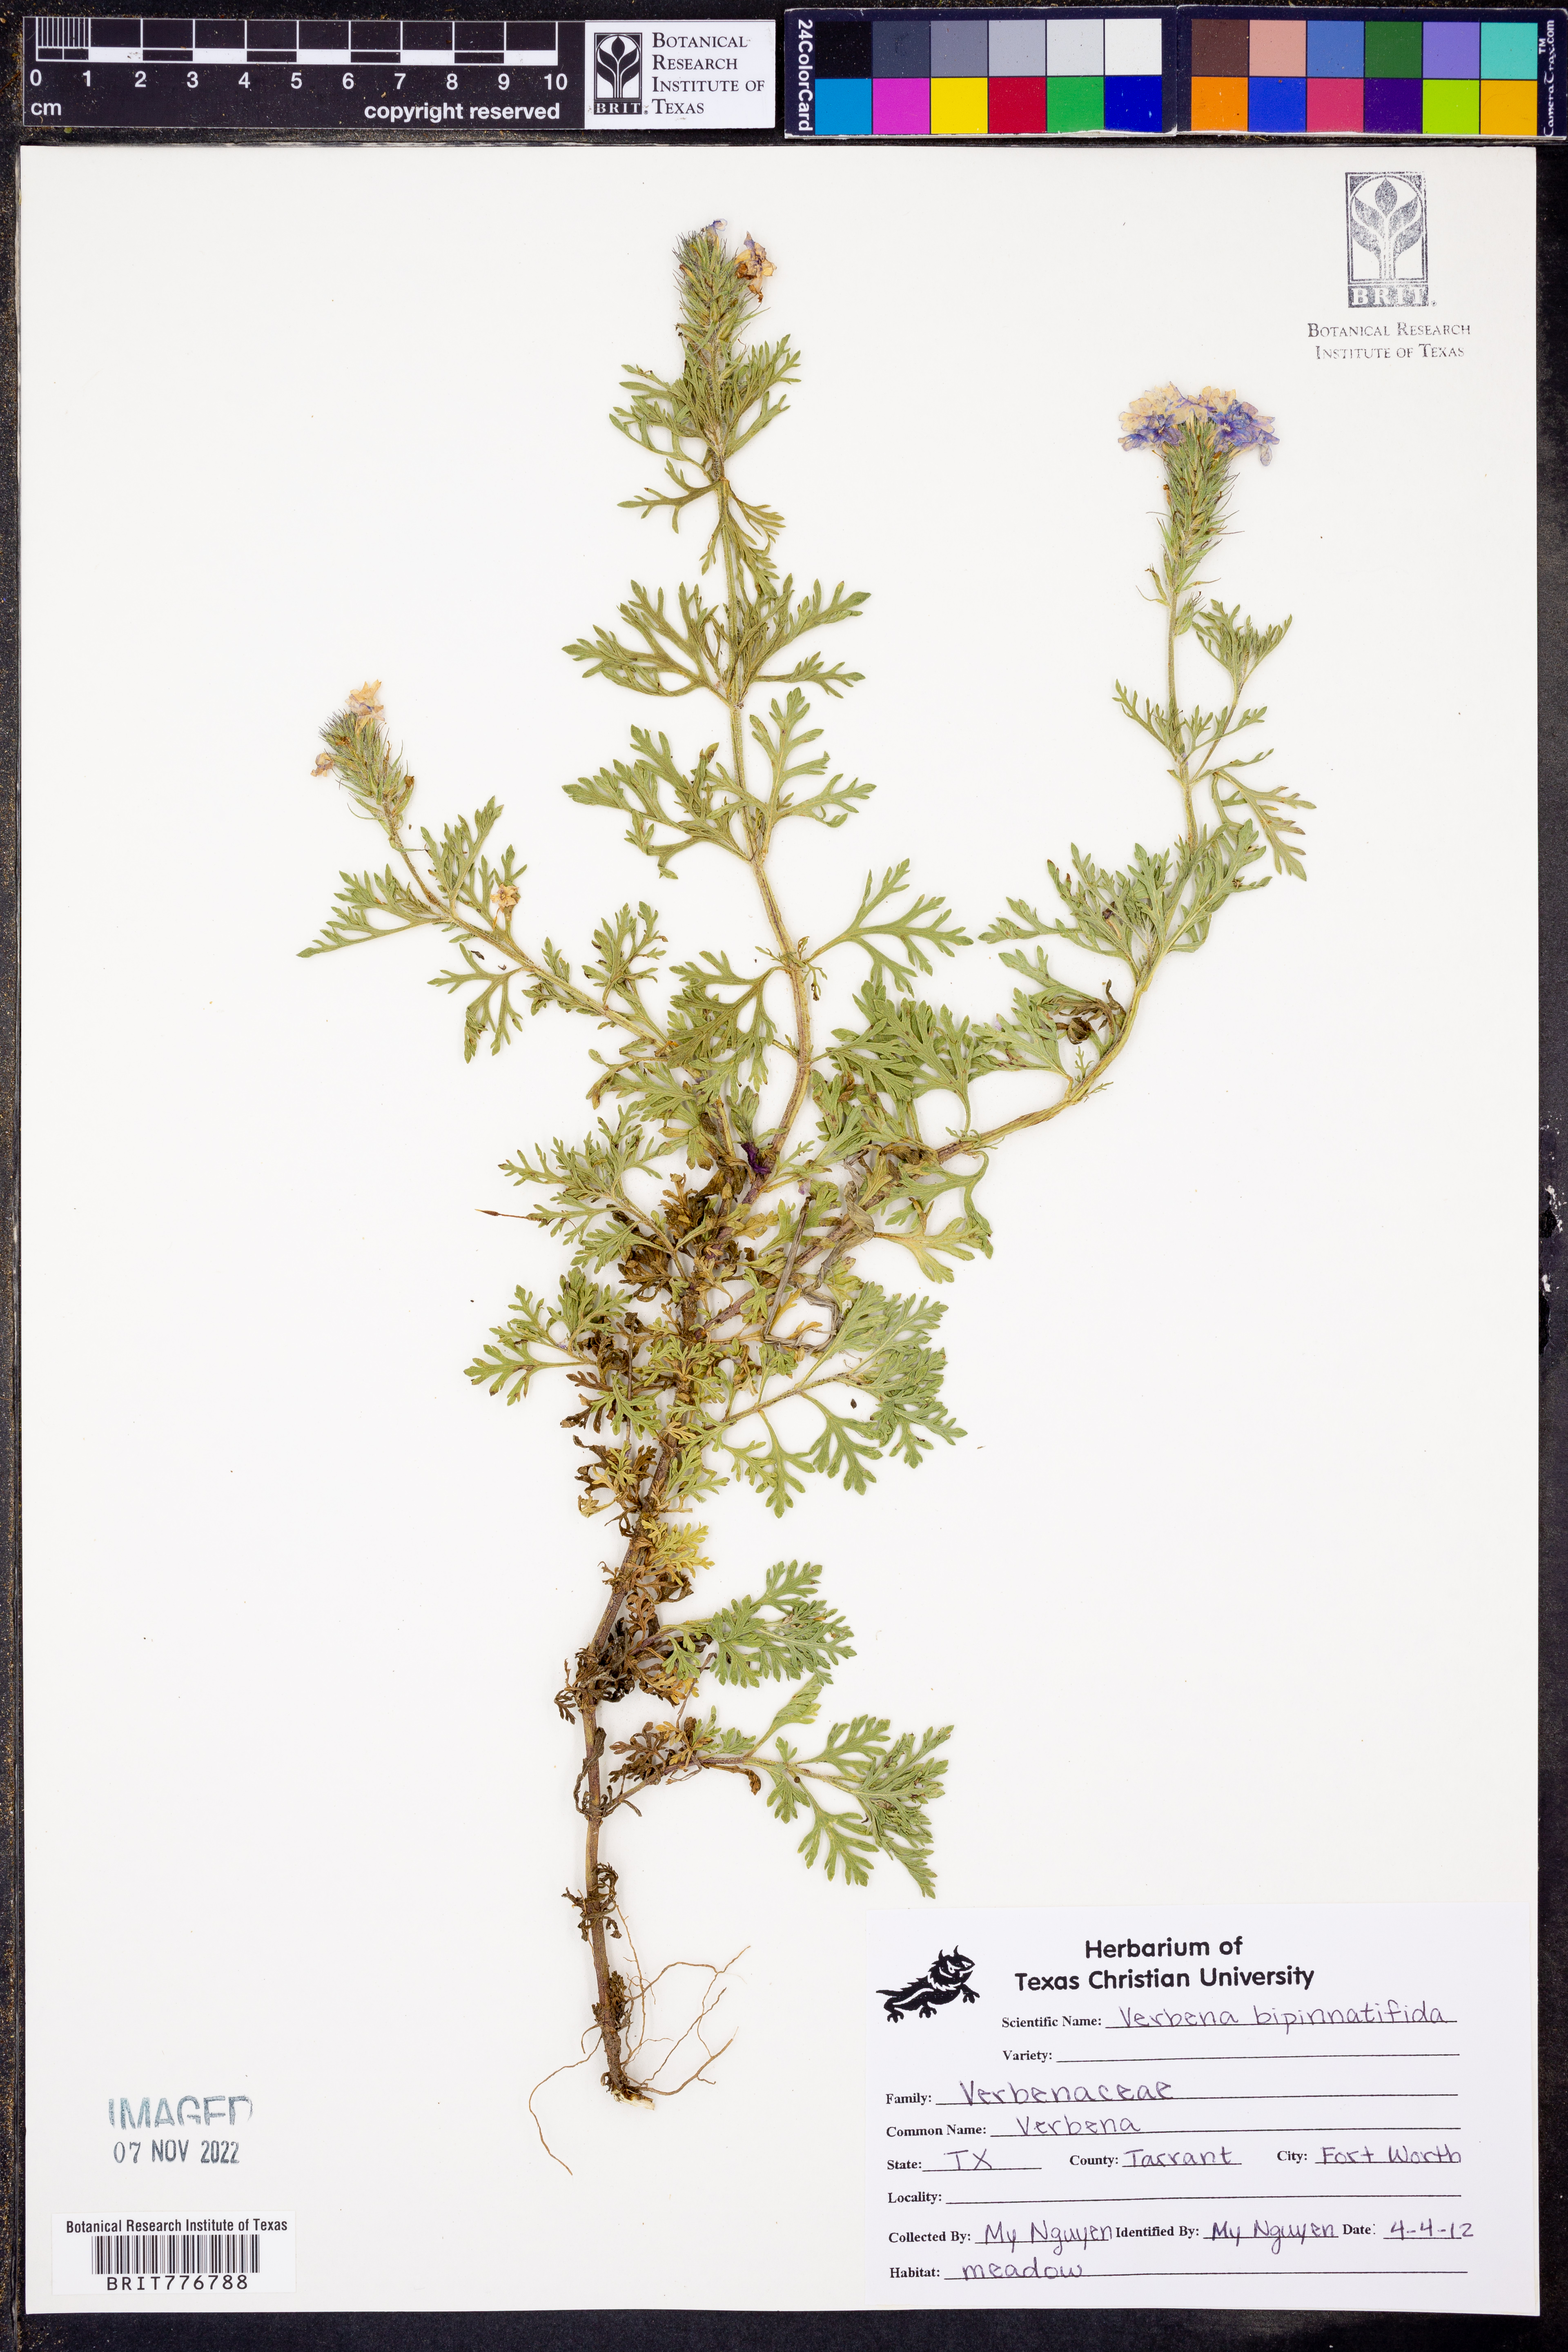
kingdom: Plantae
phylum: Tracheophyta
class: Magnoliopsida
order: Lamiales
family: Verbenaceae
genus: Verbena
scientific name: Verbena bipinnatifida
